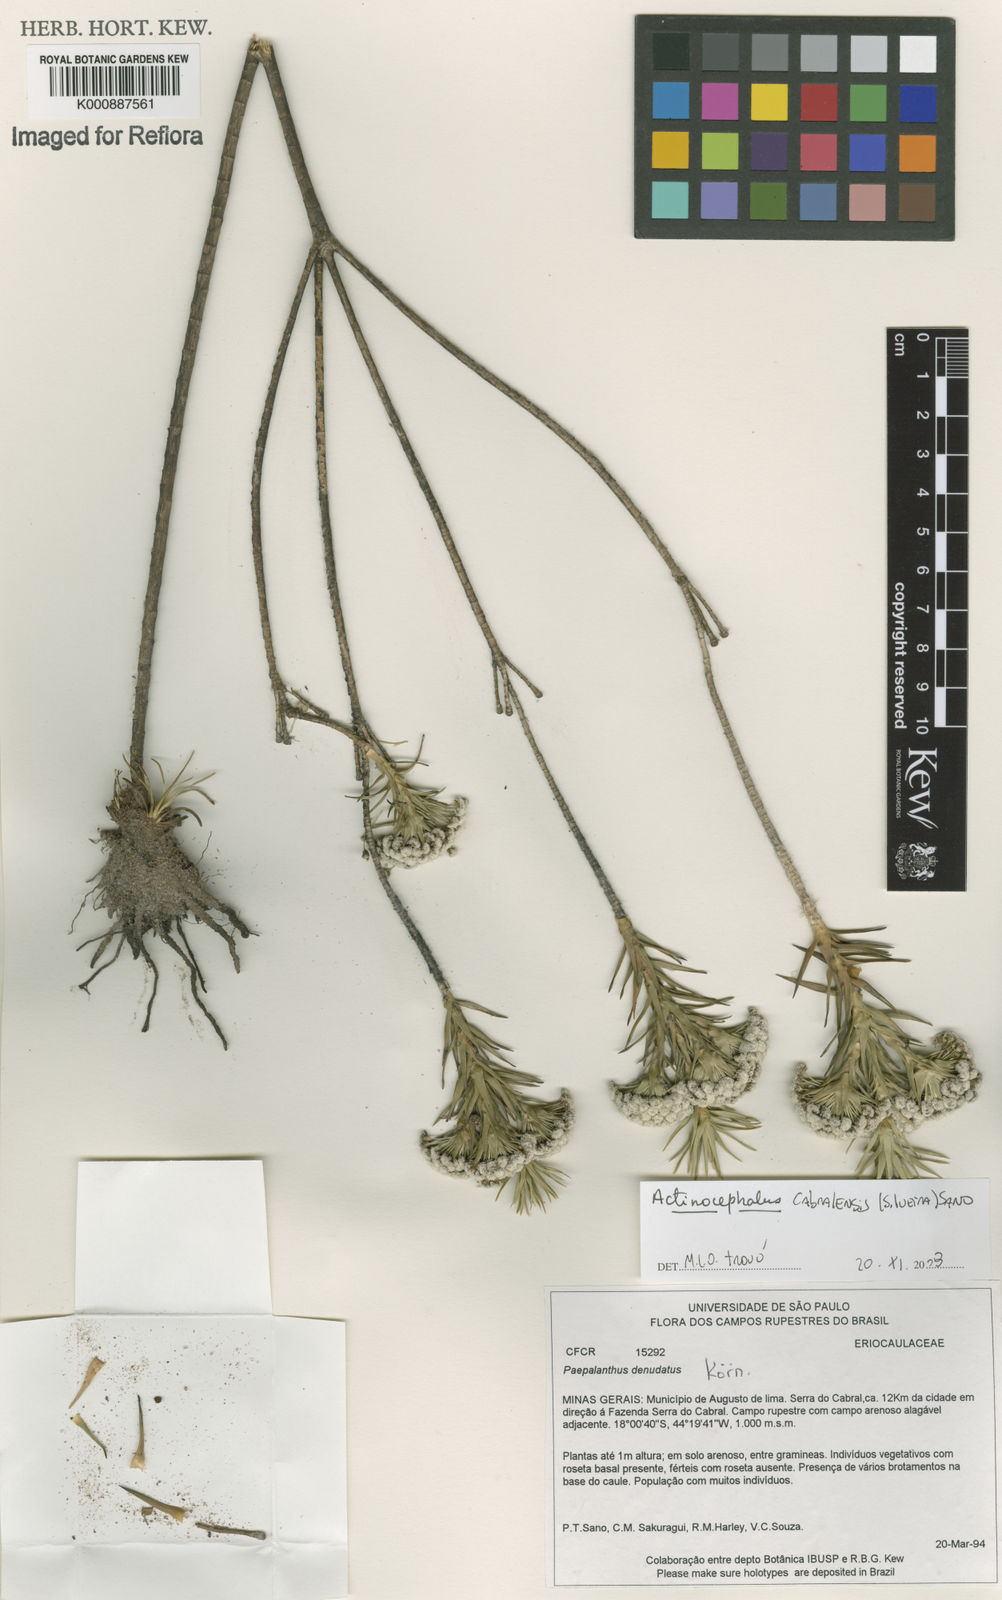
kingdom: Plantae
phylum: Tracheophyta
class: Liliopsida
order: Poales
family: Eriocaulaceae
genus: Paepalanthus
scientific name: Paepalanthus cabralensis
